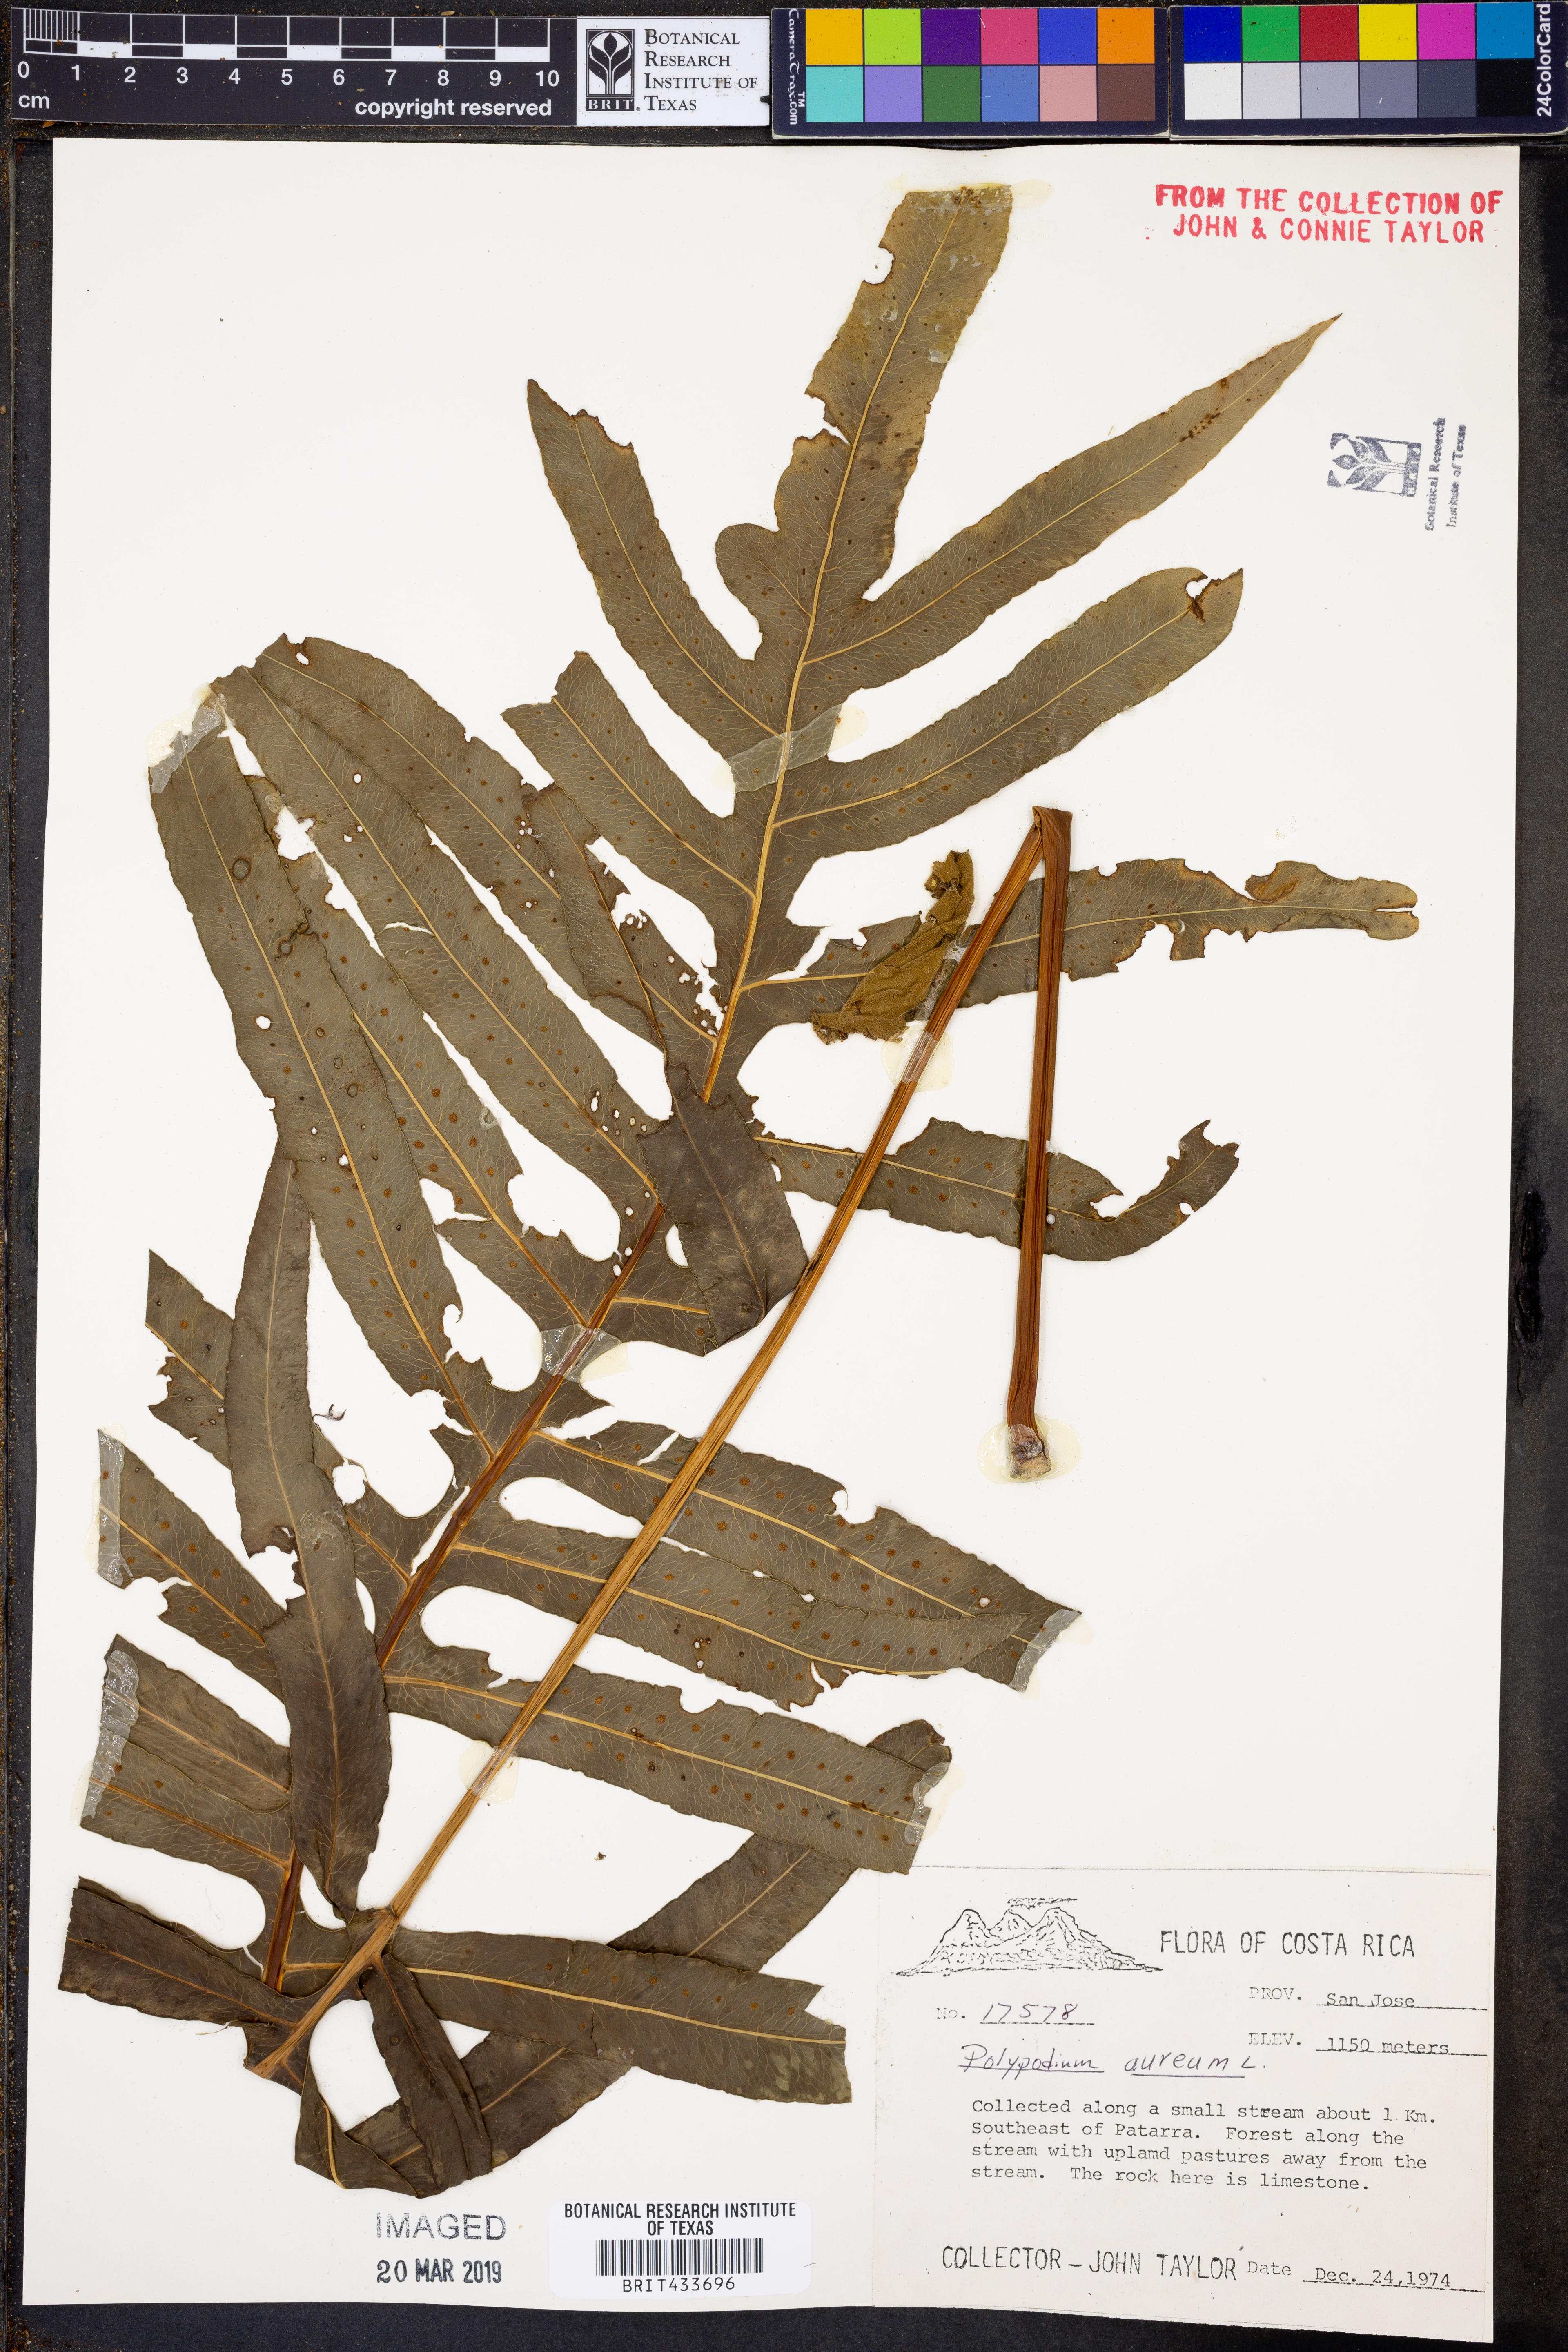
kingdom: Plantae
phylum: Tracheophyta
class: Polypodiopsida
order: Polypodiales
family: Polypodiaceae
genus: Phlebodium
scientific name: Phlebodium aureum
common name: Gold-foot fern
